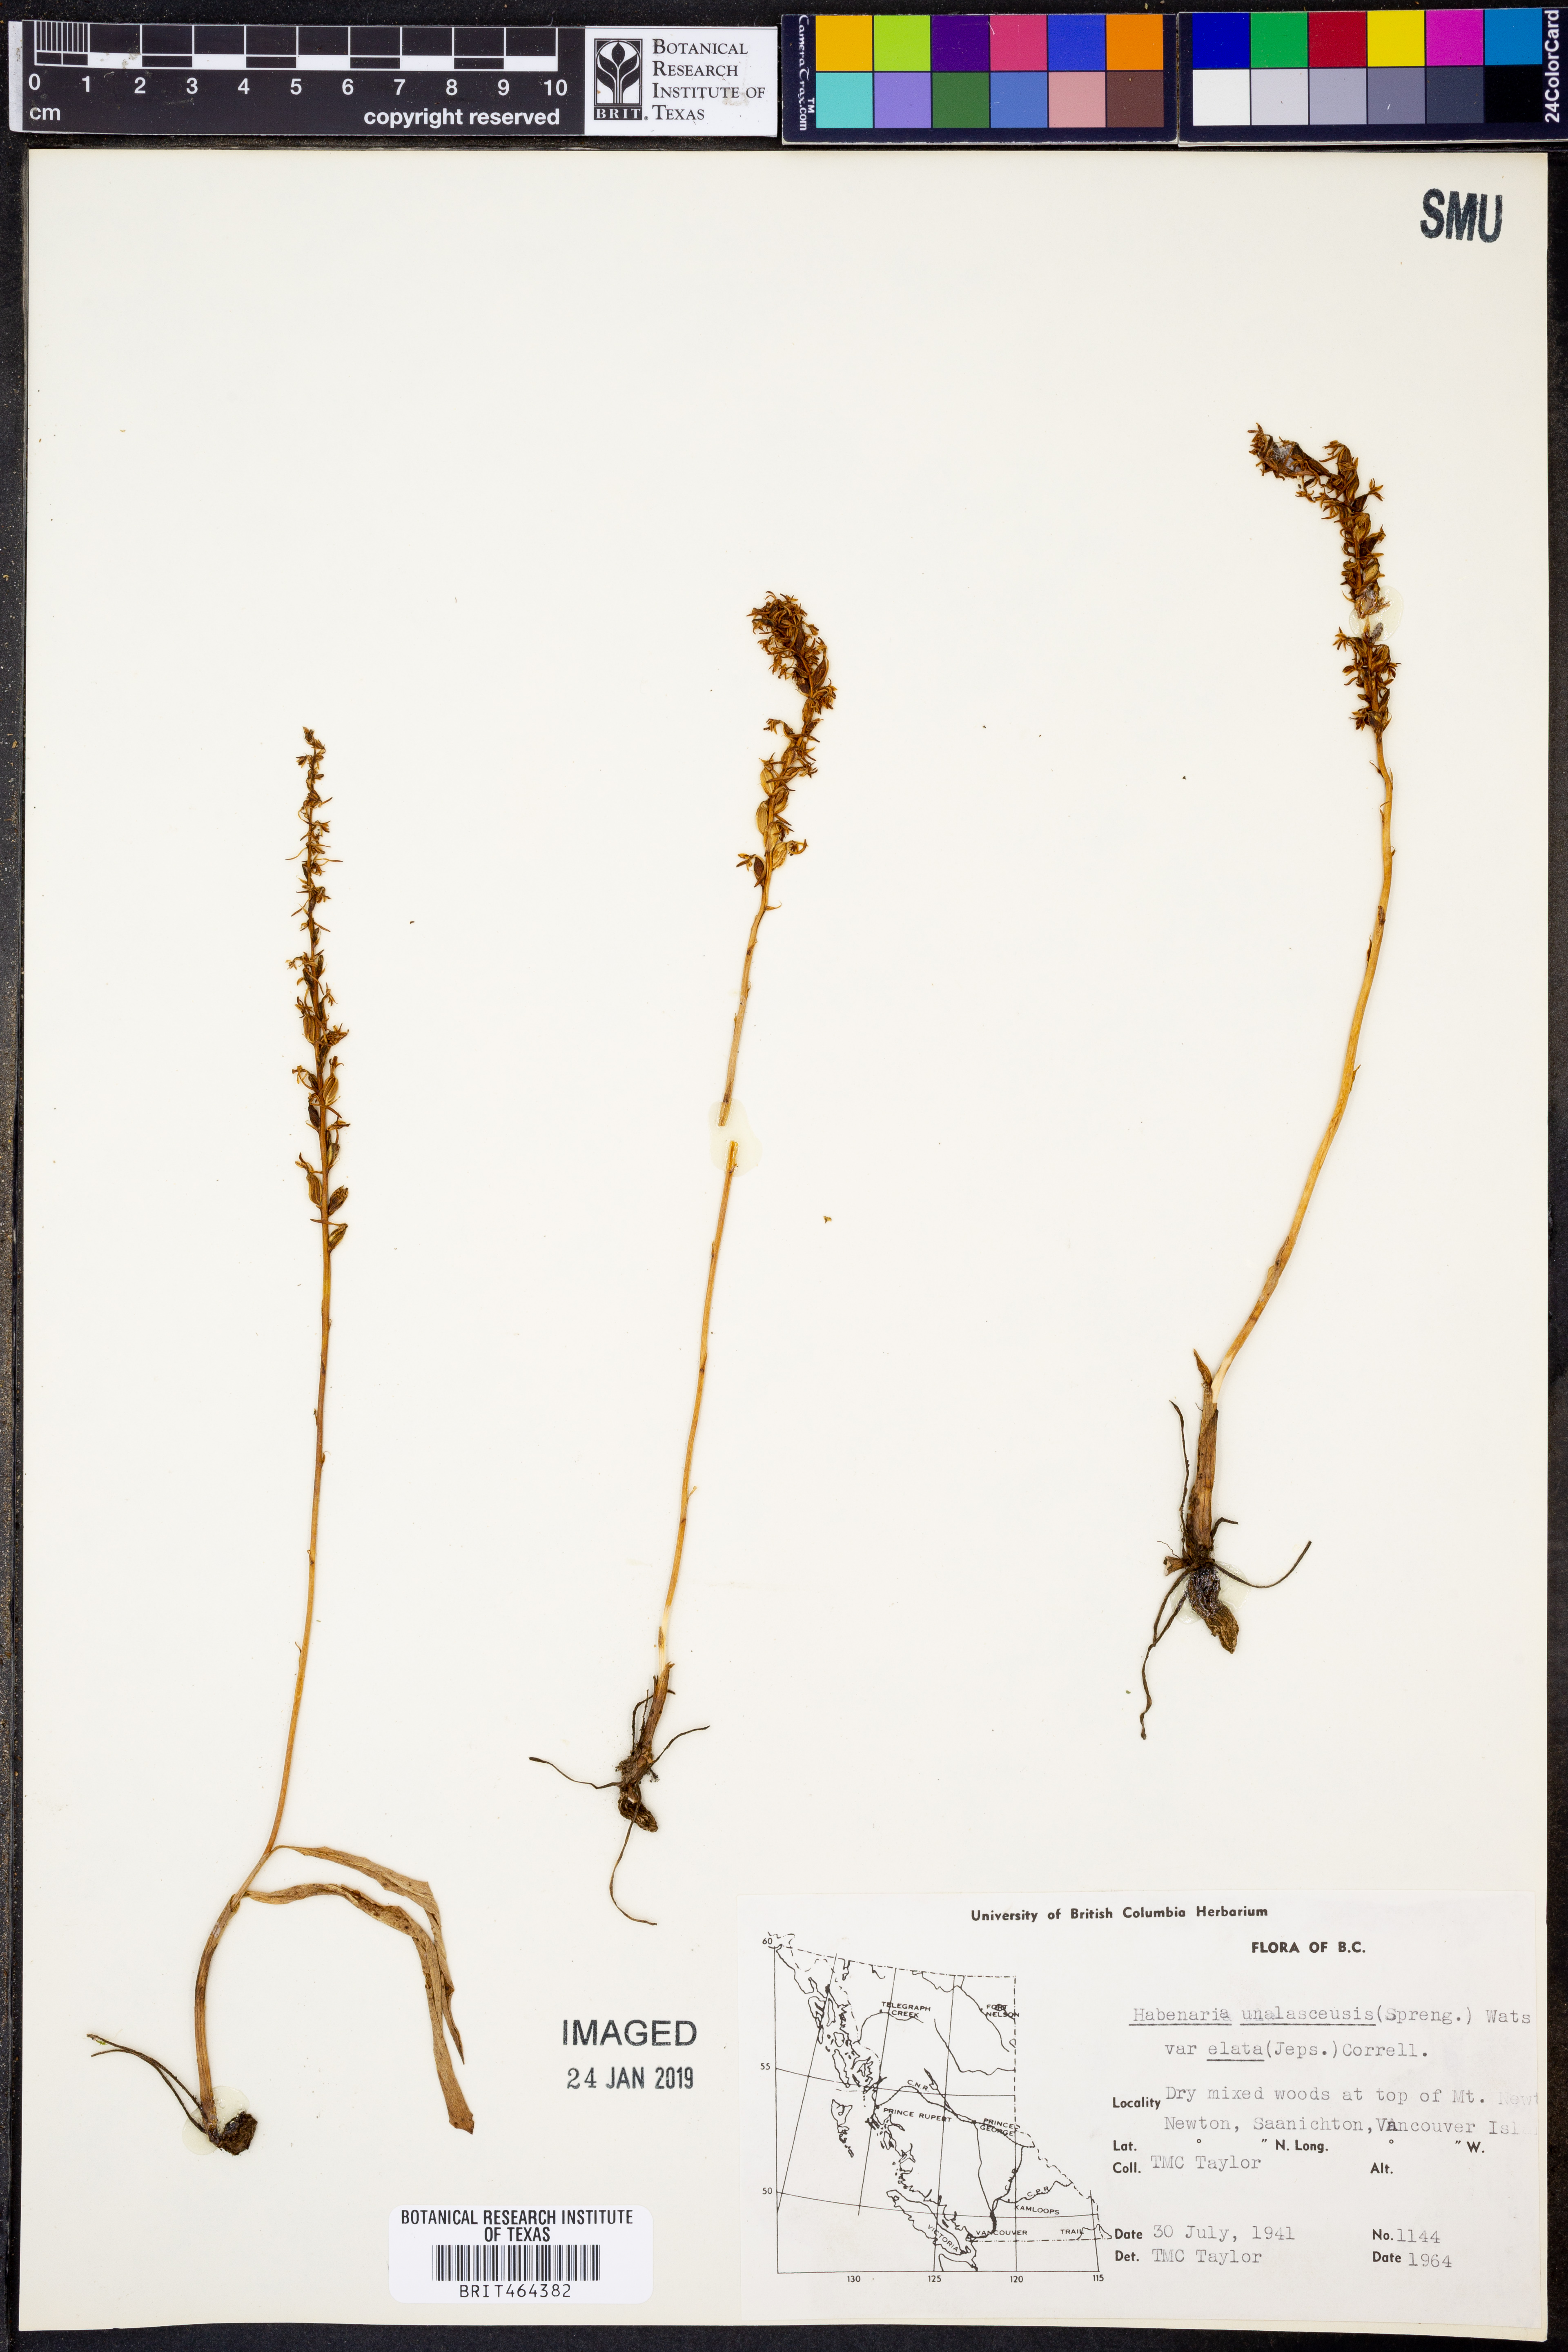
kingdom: Plantae
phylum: Tracheophyta
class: Liliopsida
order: Asparagales
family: Orchidaceae
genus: Platanthera
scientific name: Platanthera elongata
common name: Dense-flowered rein orchid
